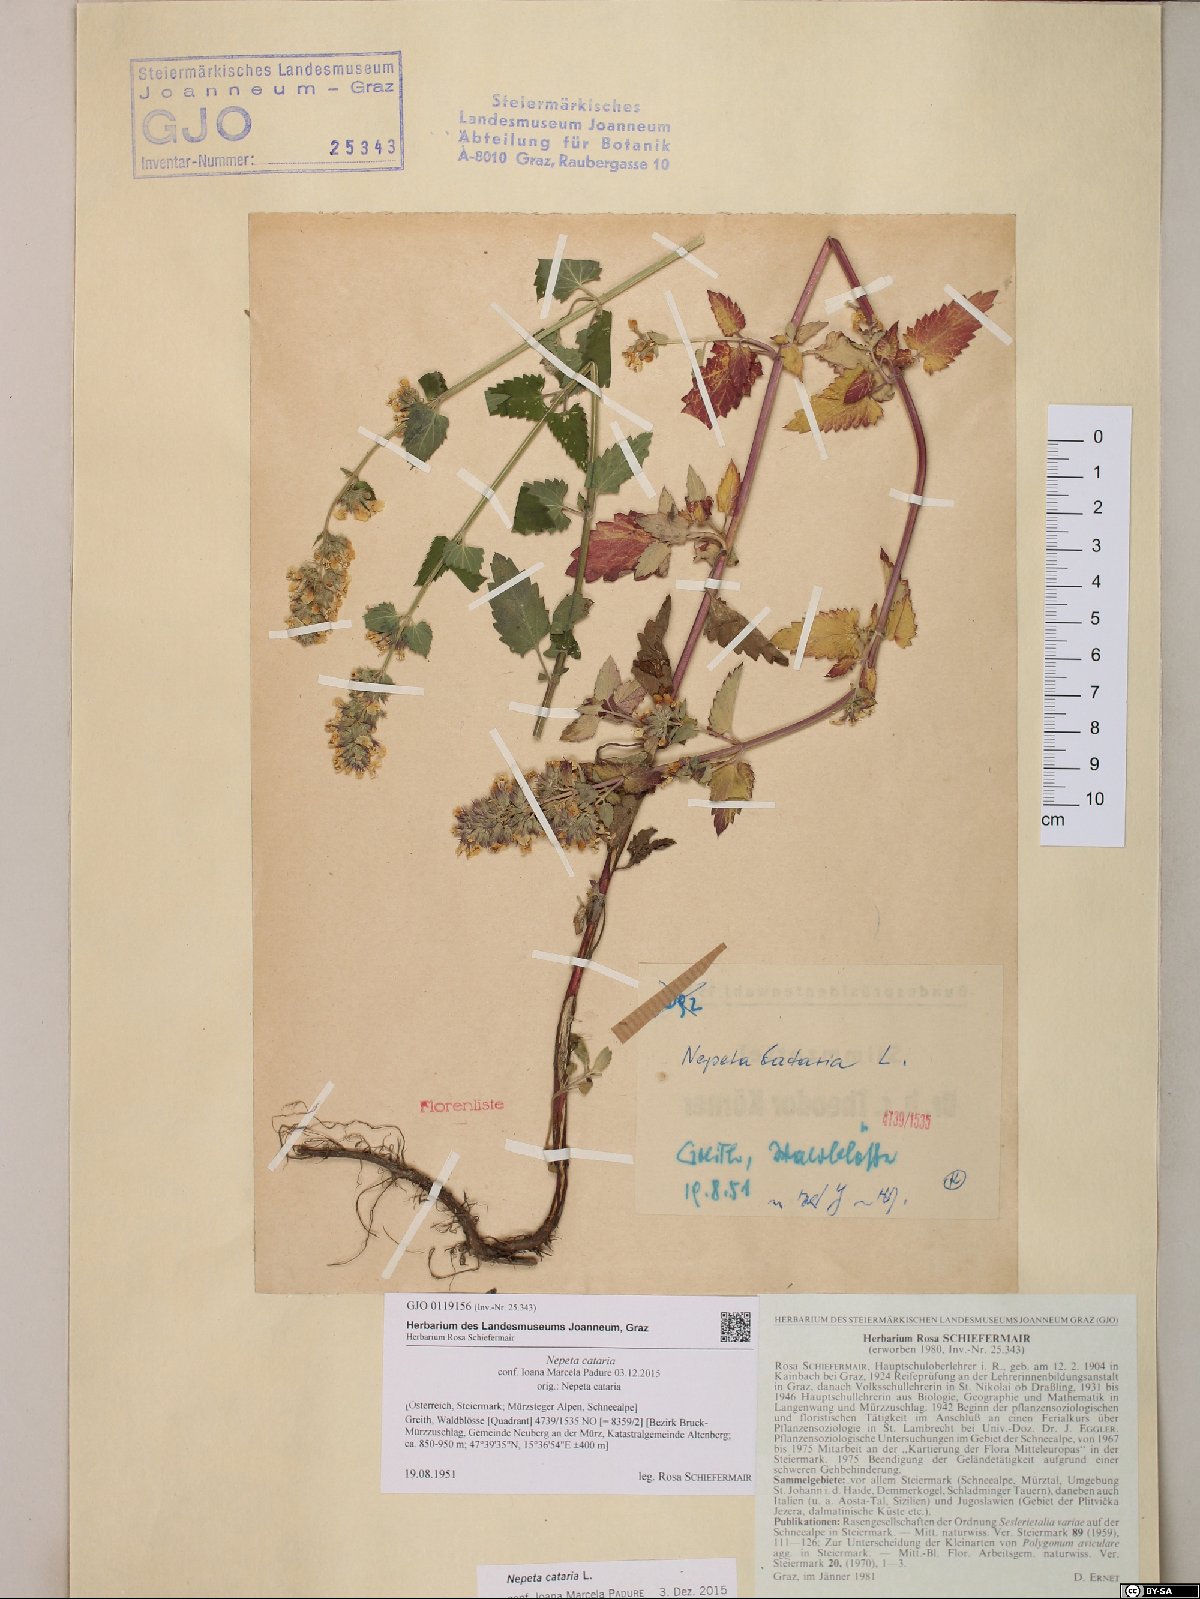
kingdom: Plantae
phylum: Tracheophyta
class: Magnoliopsida
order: Lamiales
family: Lamiaceae
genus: Nepeta
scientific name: Nepeta cataria
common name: Catnip
